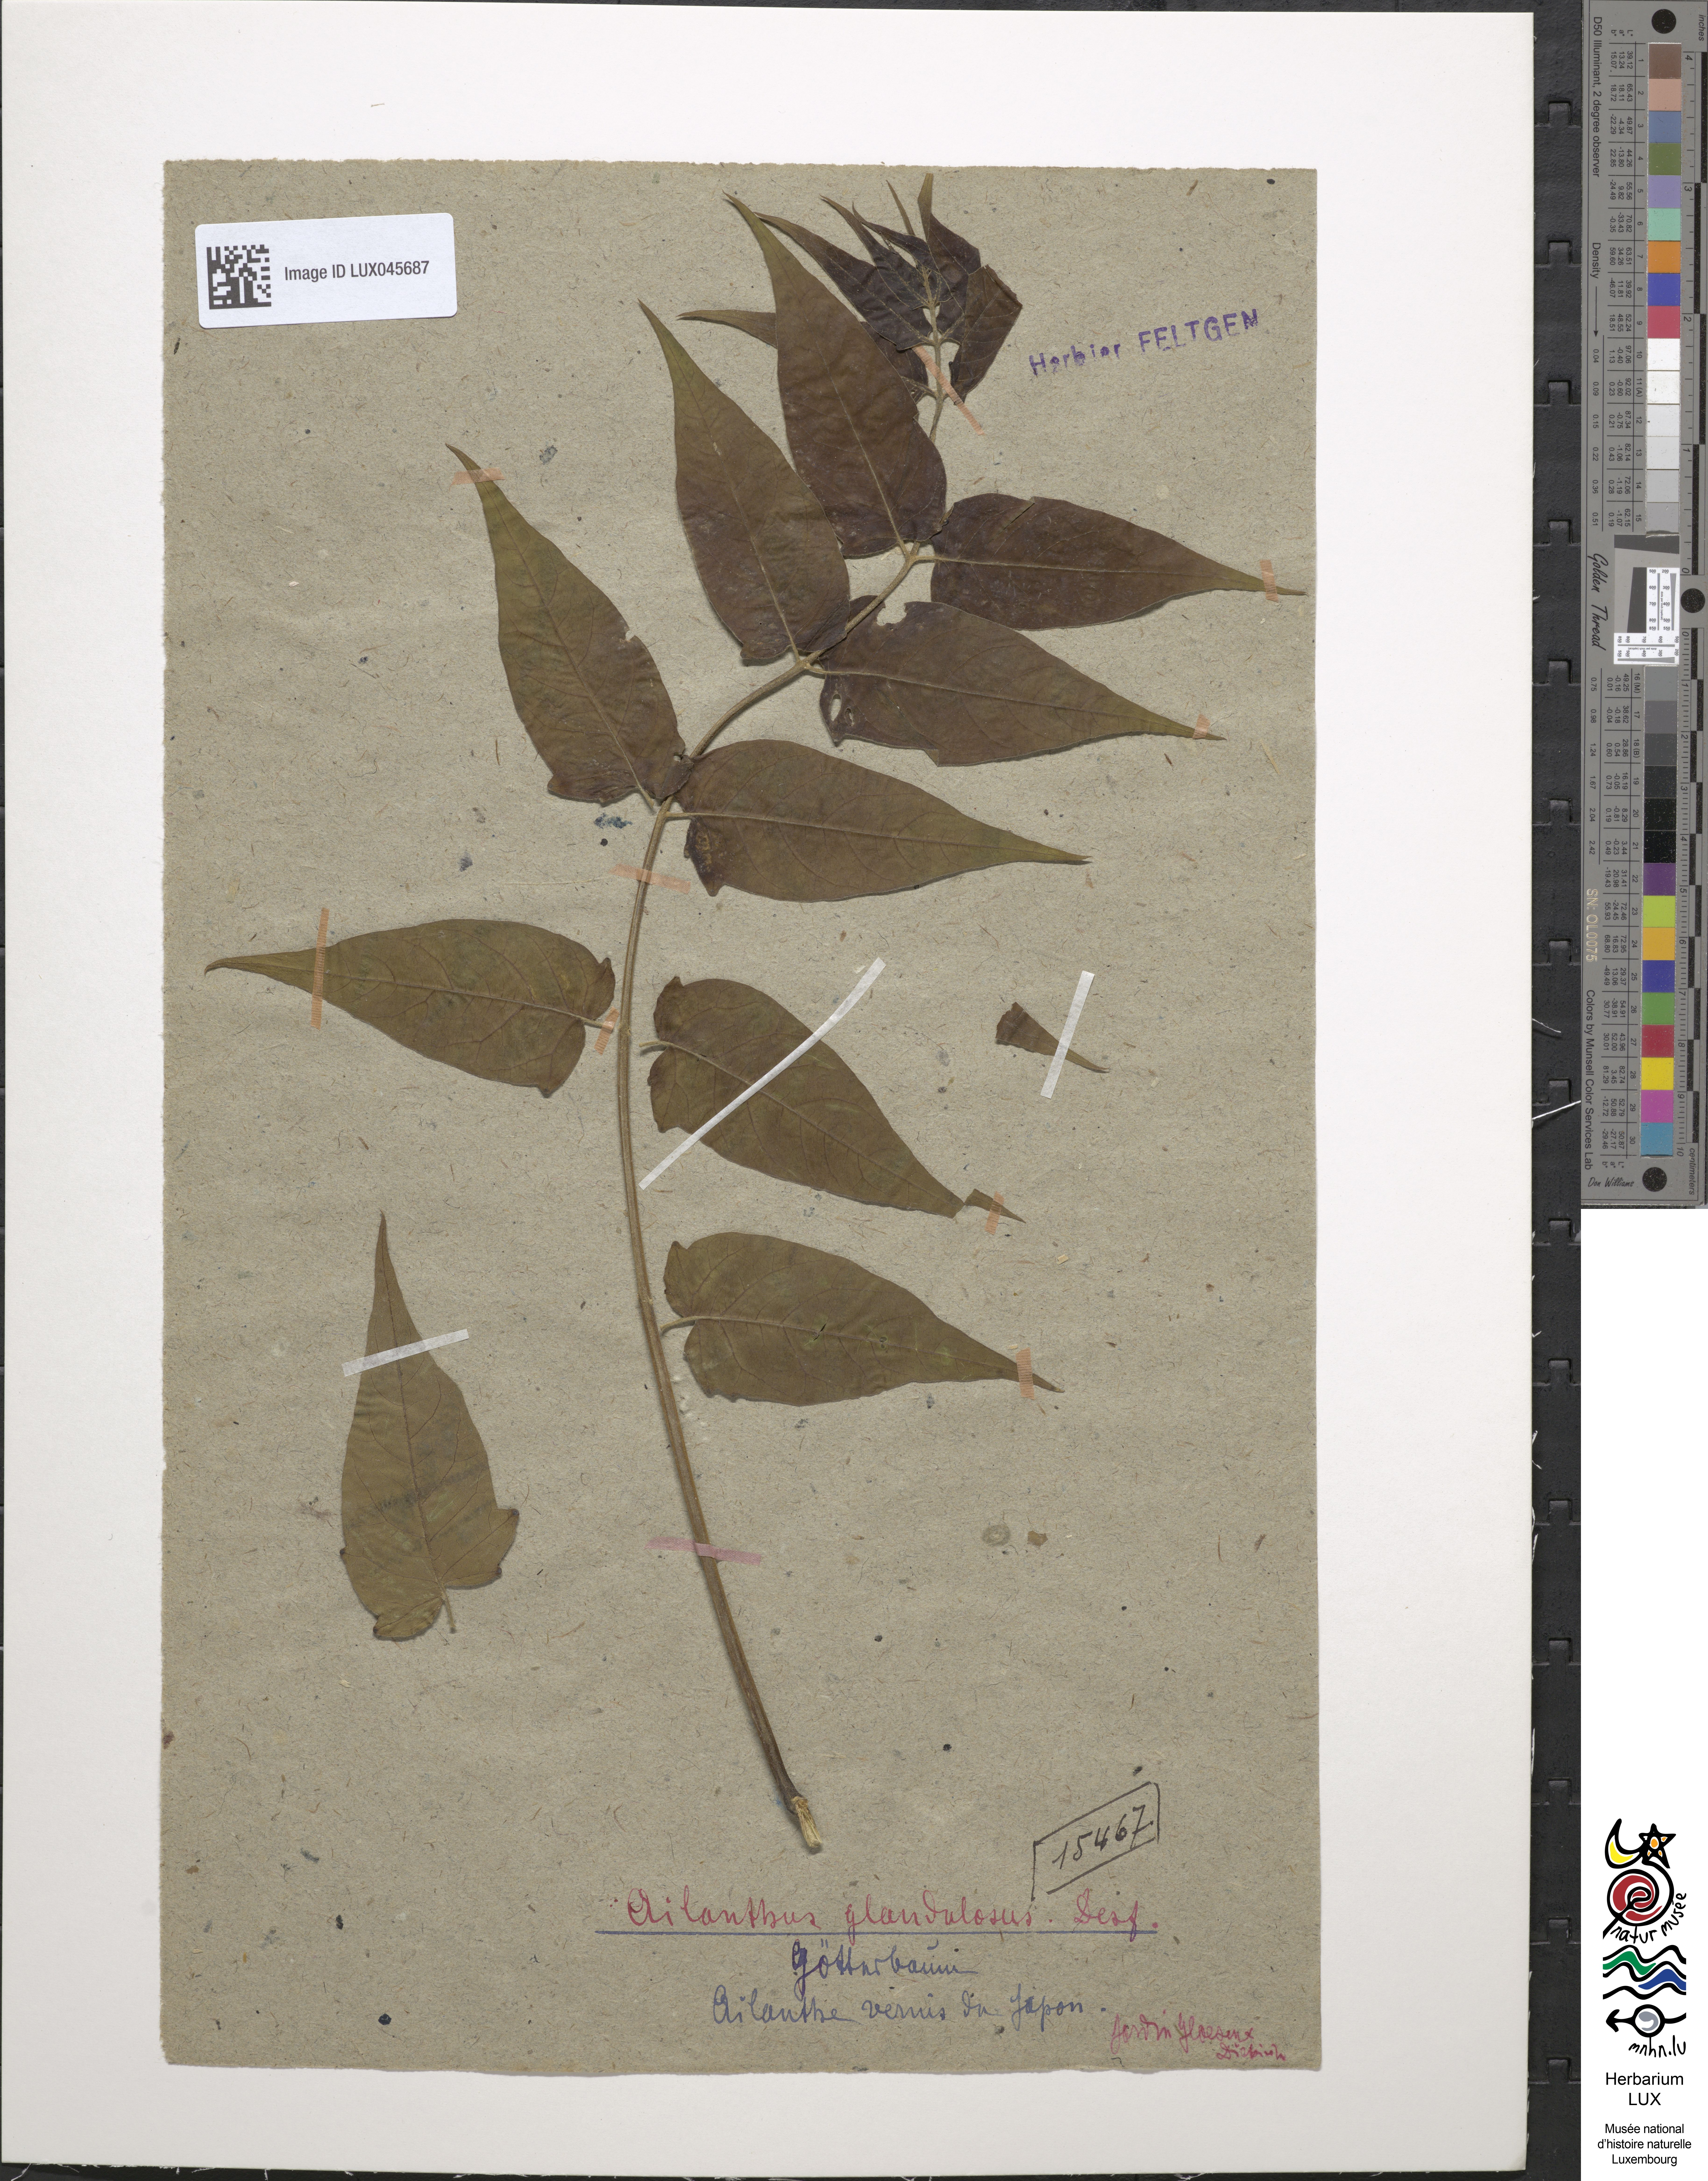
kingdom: Plantae
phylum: Tracheophyta
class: Magnoliopsida
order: Sapindales
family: Simaroubaceae
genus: Ailanthus
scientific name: Ailanthus altissima
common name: Tree-of-heaven
